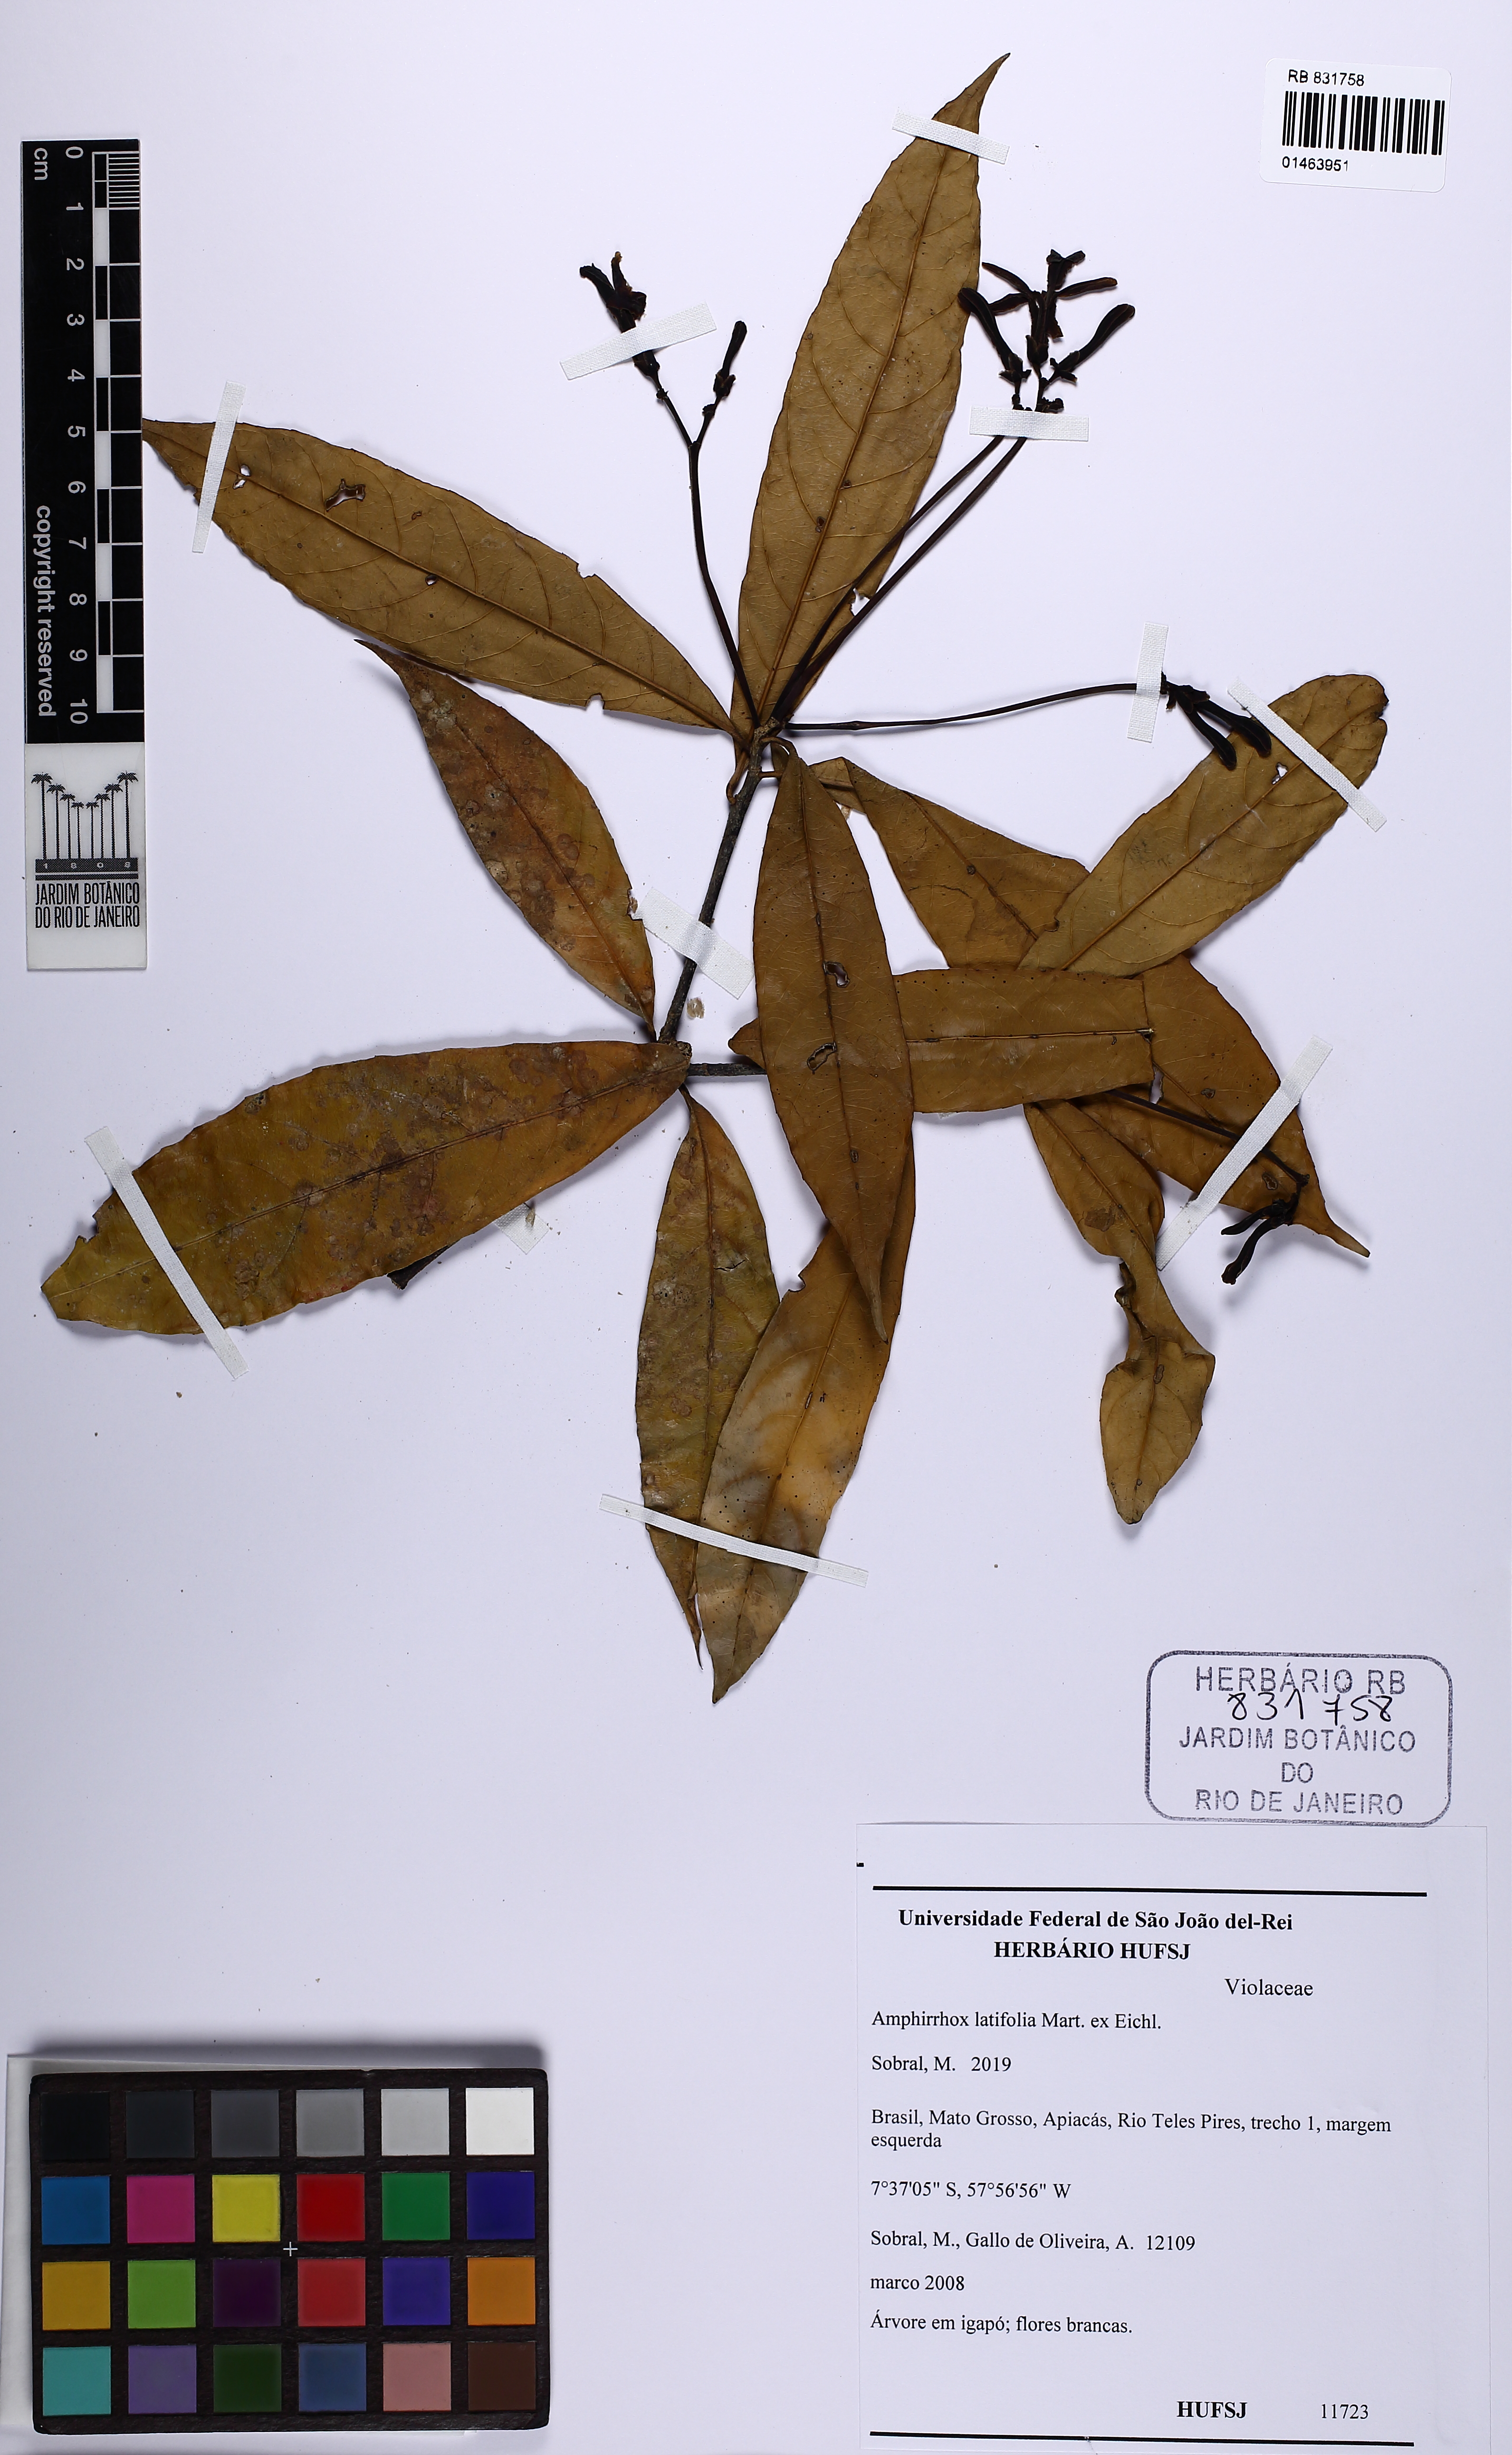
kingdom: Plantae
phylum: Tracheophyta
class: Magnoliopsida
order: Malpighiales
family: Violaceae
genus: Amphirrhox
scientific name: Amphirrhox longifolia
